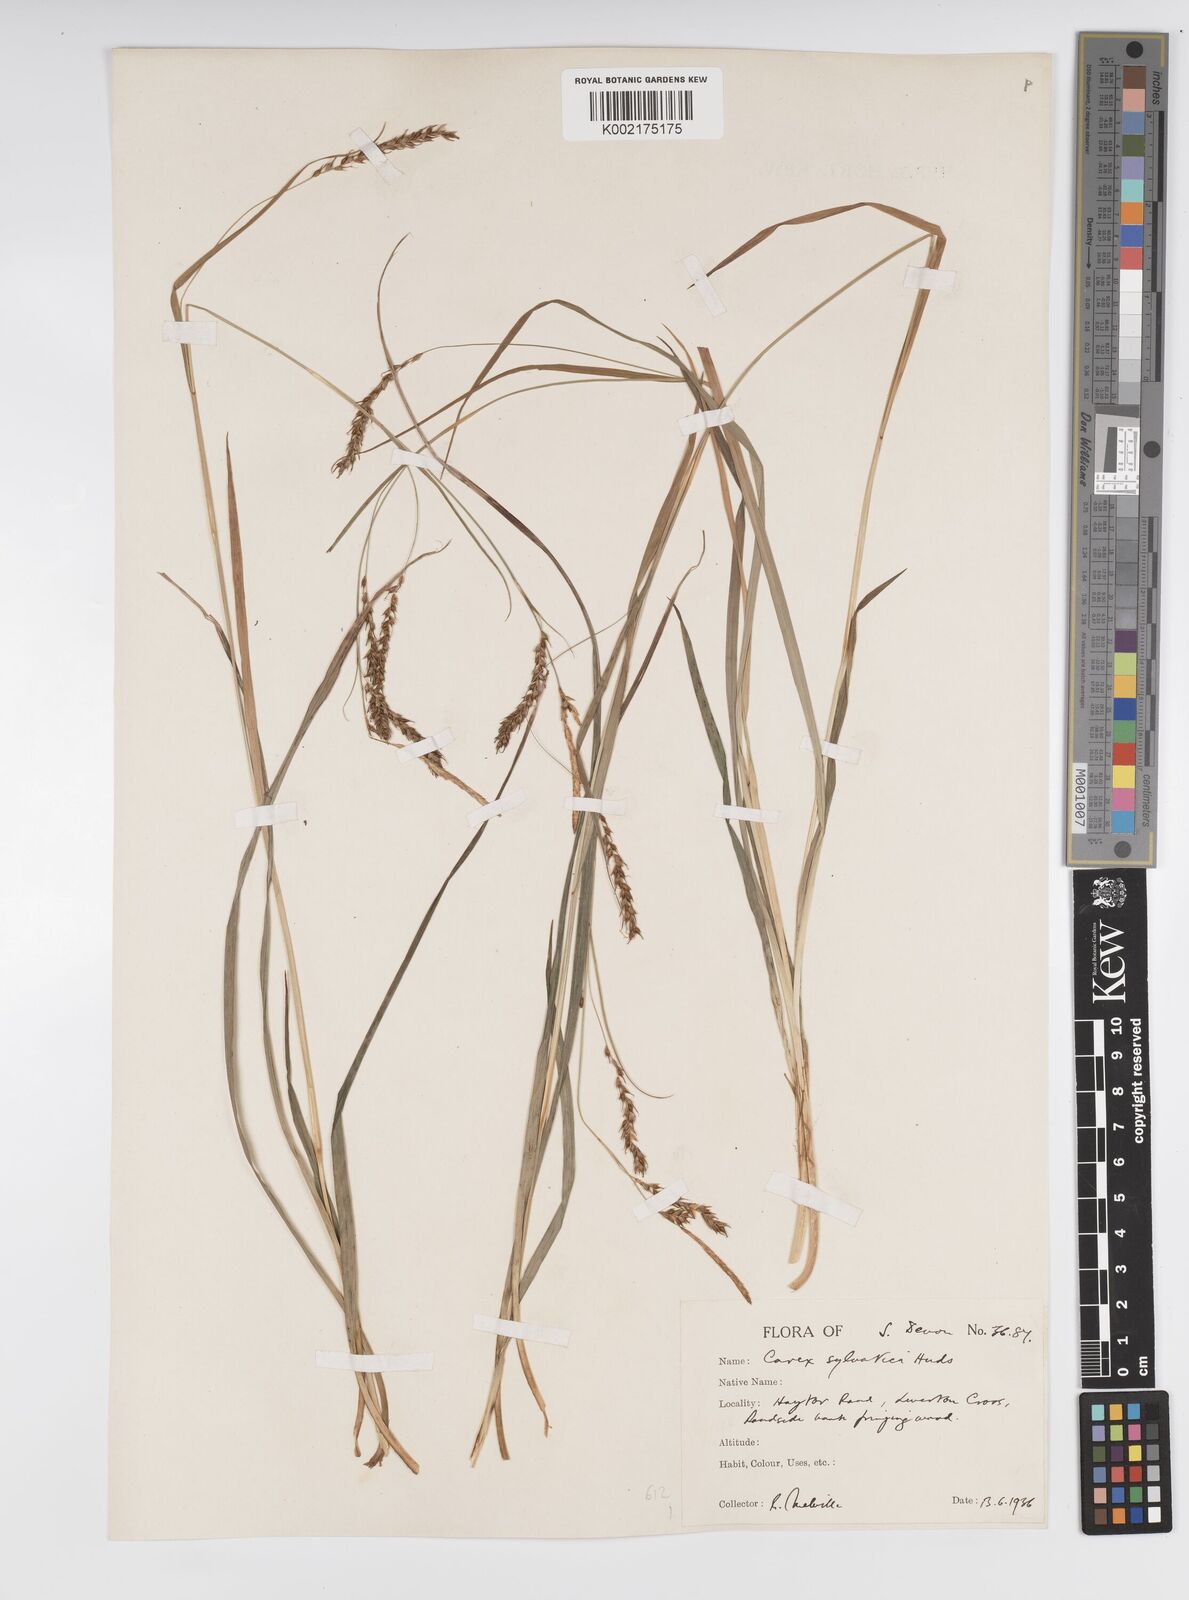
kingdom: Plantae
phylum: Tracheophyta
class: Liliopsida
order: Poales
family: Cyperaceae
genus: Carex
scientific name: Carex sylvatica
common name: Wood-sedge
